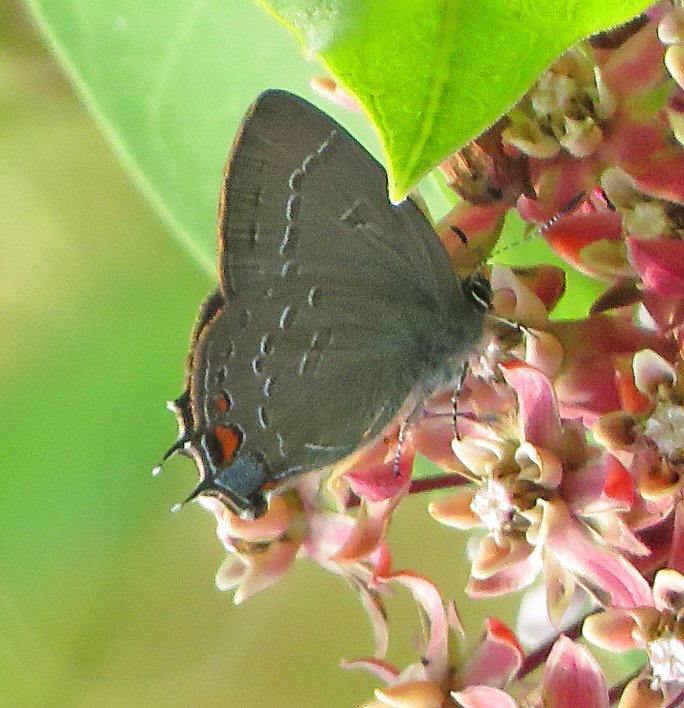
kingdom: Animalia
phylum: Arthropoda
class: Insecta
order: Lepidoptera
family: Lycaenidae
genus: Satyrium
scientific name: Satyrium calanus
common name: Banded Hairstreak
